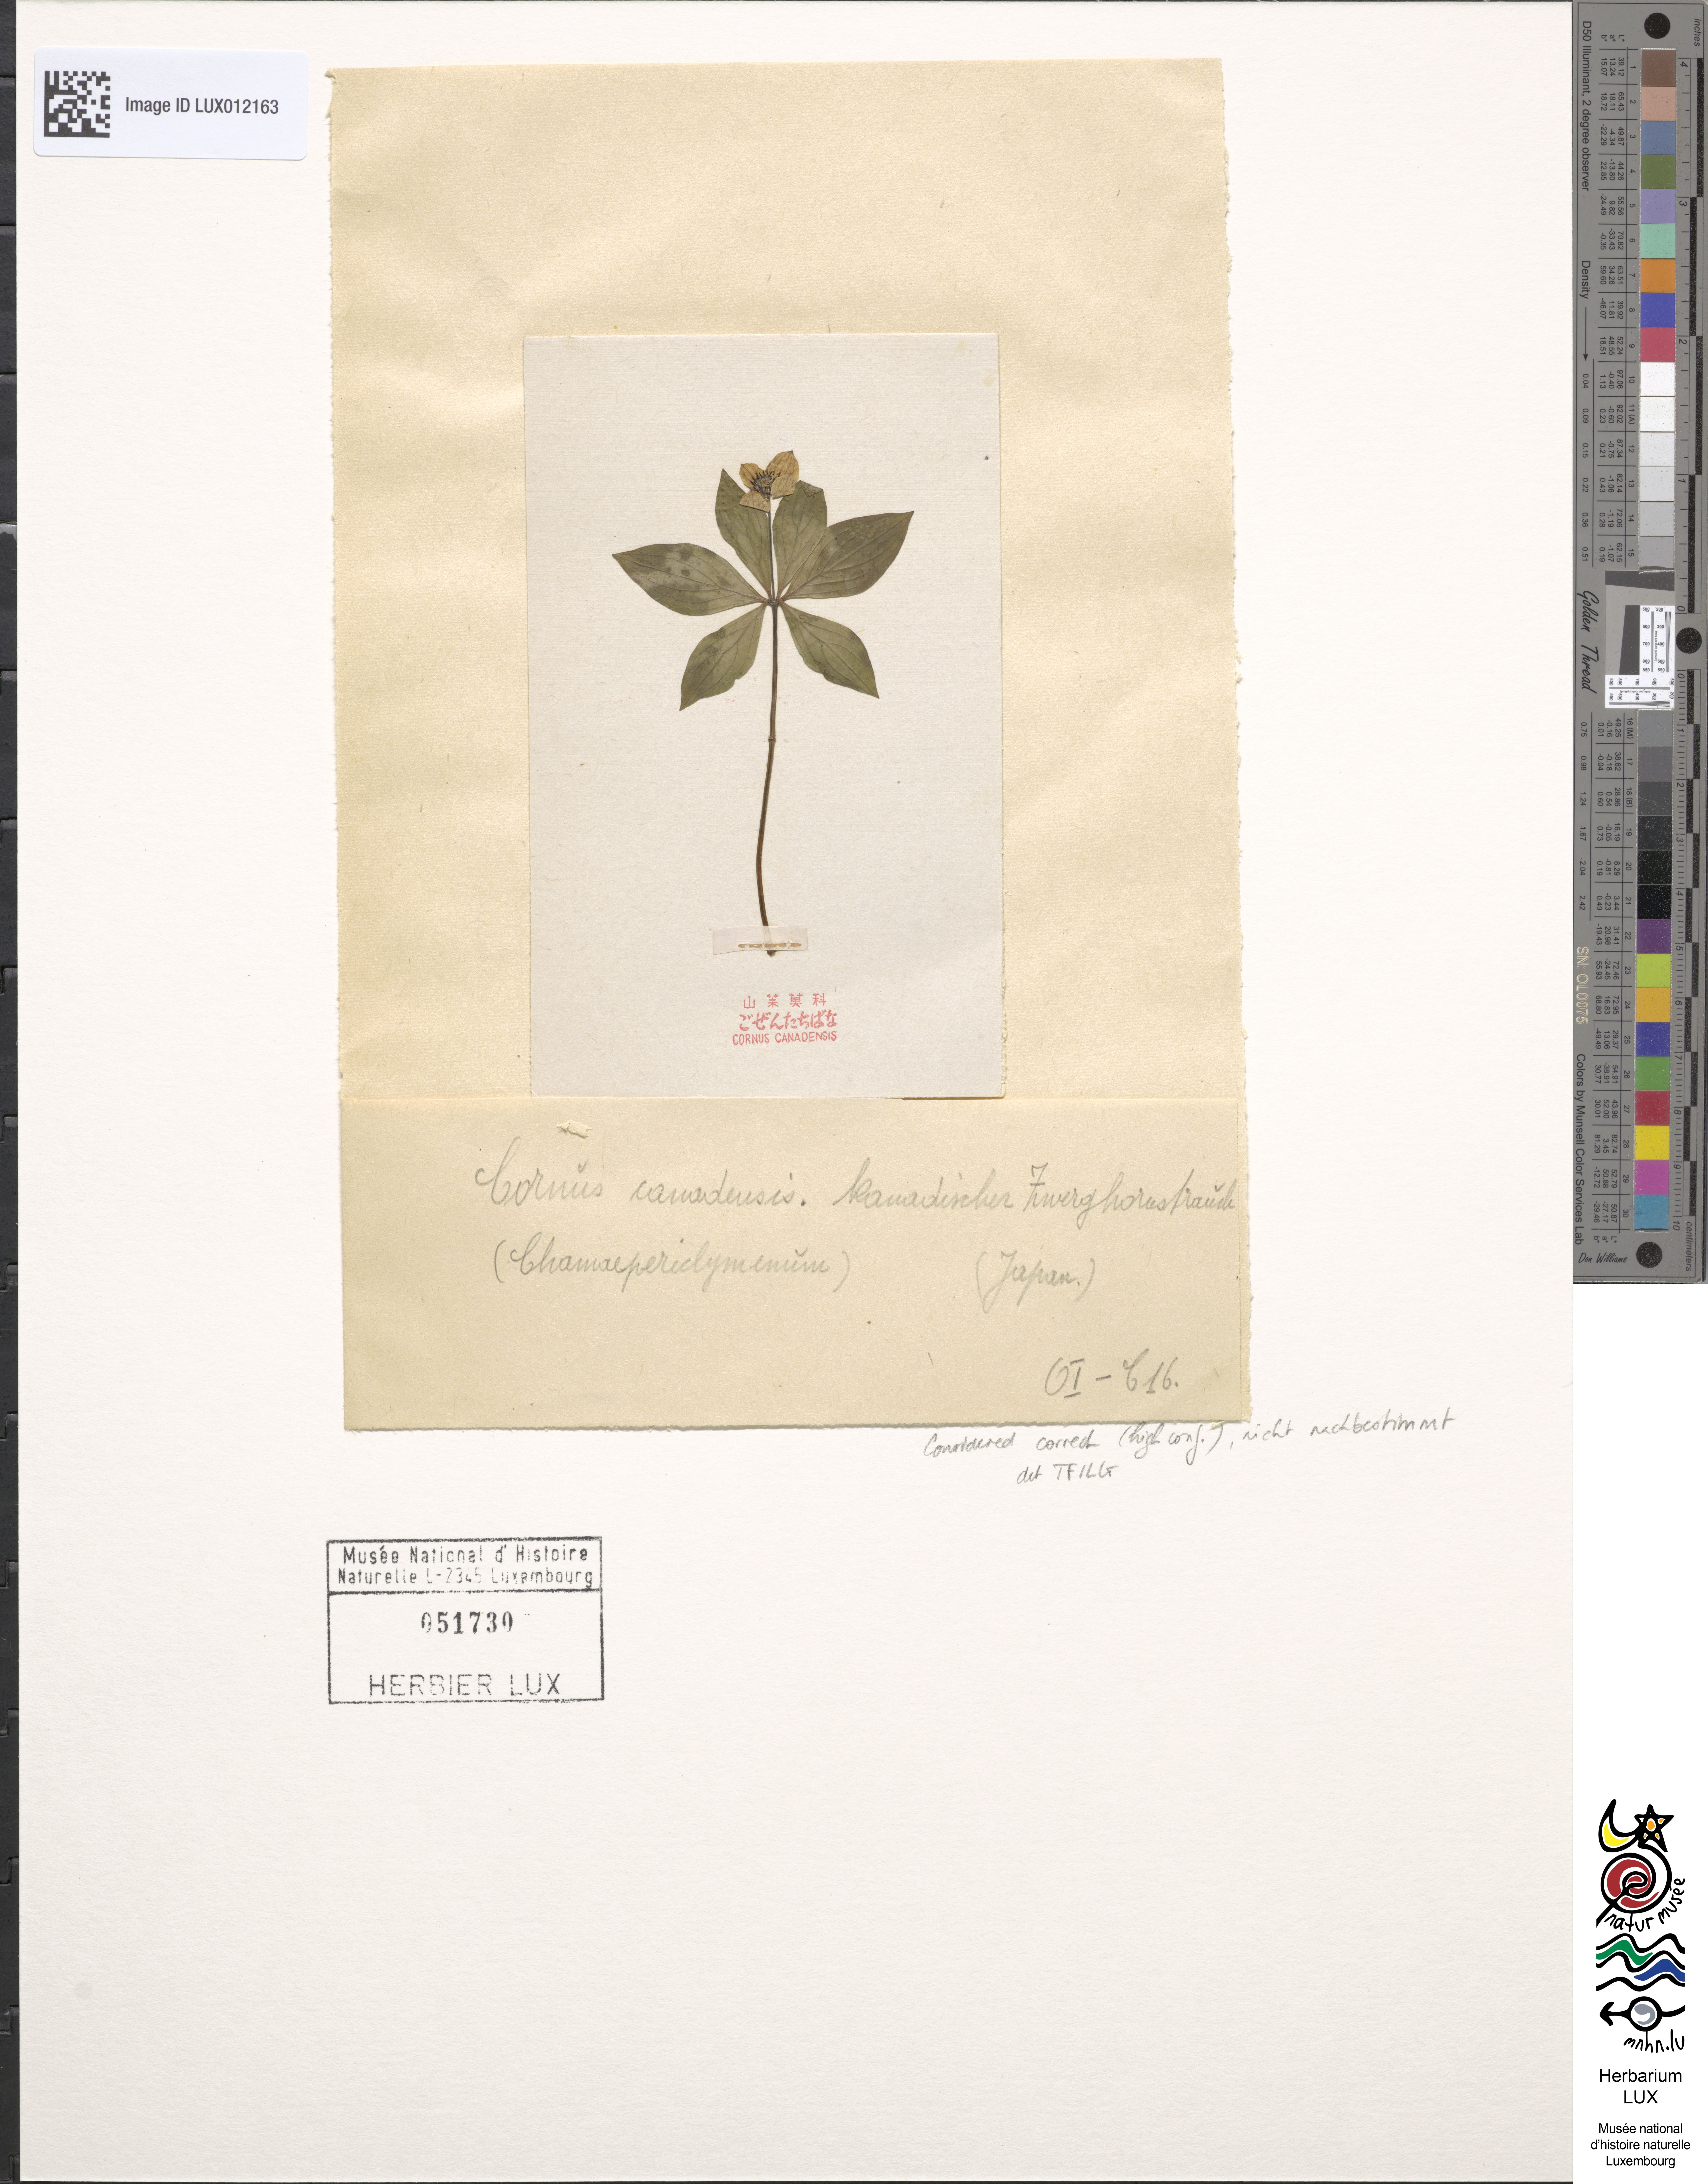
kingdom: Plantae
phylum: Tracheophyta
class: Magnoliopsida
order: Cornales
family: Cornaceae
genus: Cornus
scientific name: Cornus canadensis
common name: Creeping dogwood
